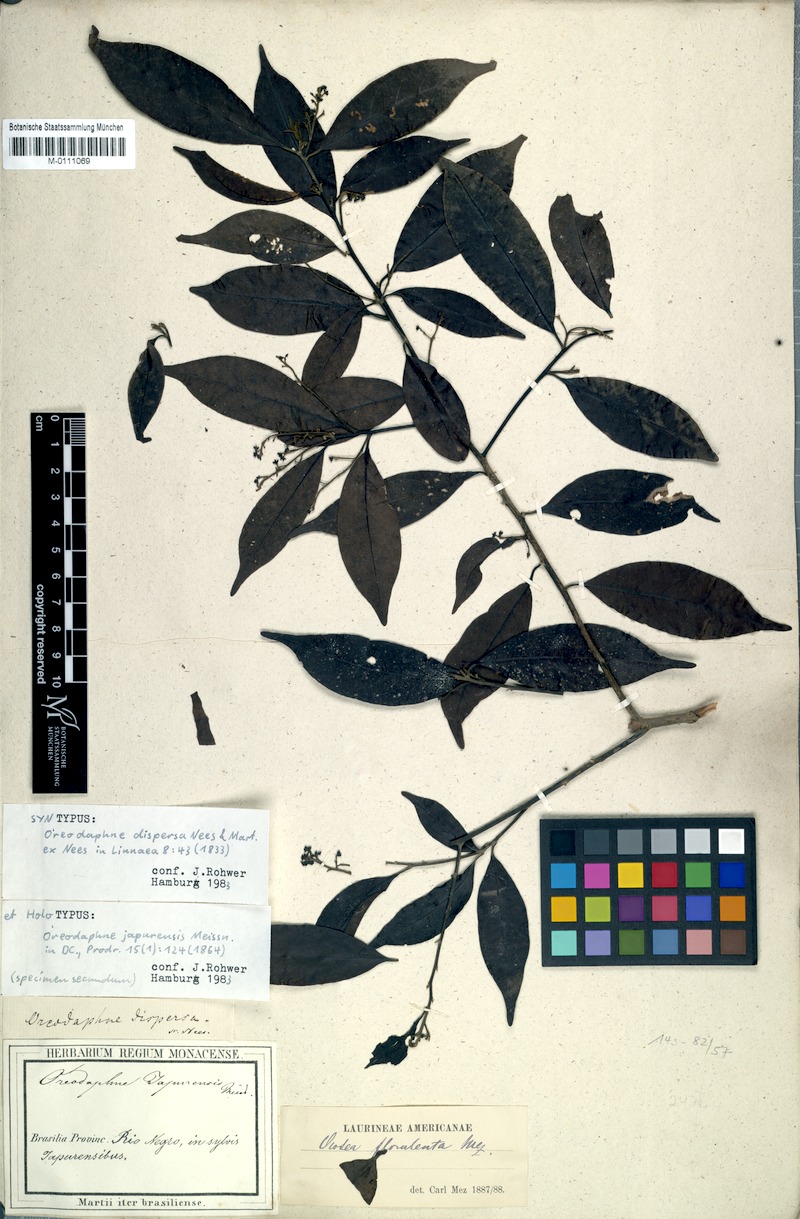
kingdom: Plantae
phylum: Tracheophyta
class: Magnoliopsida
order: Laurales
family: Lauraceae
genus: Ocotea
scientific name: Ocotea neesiana
